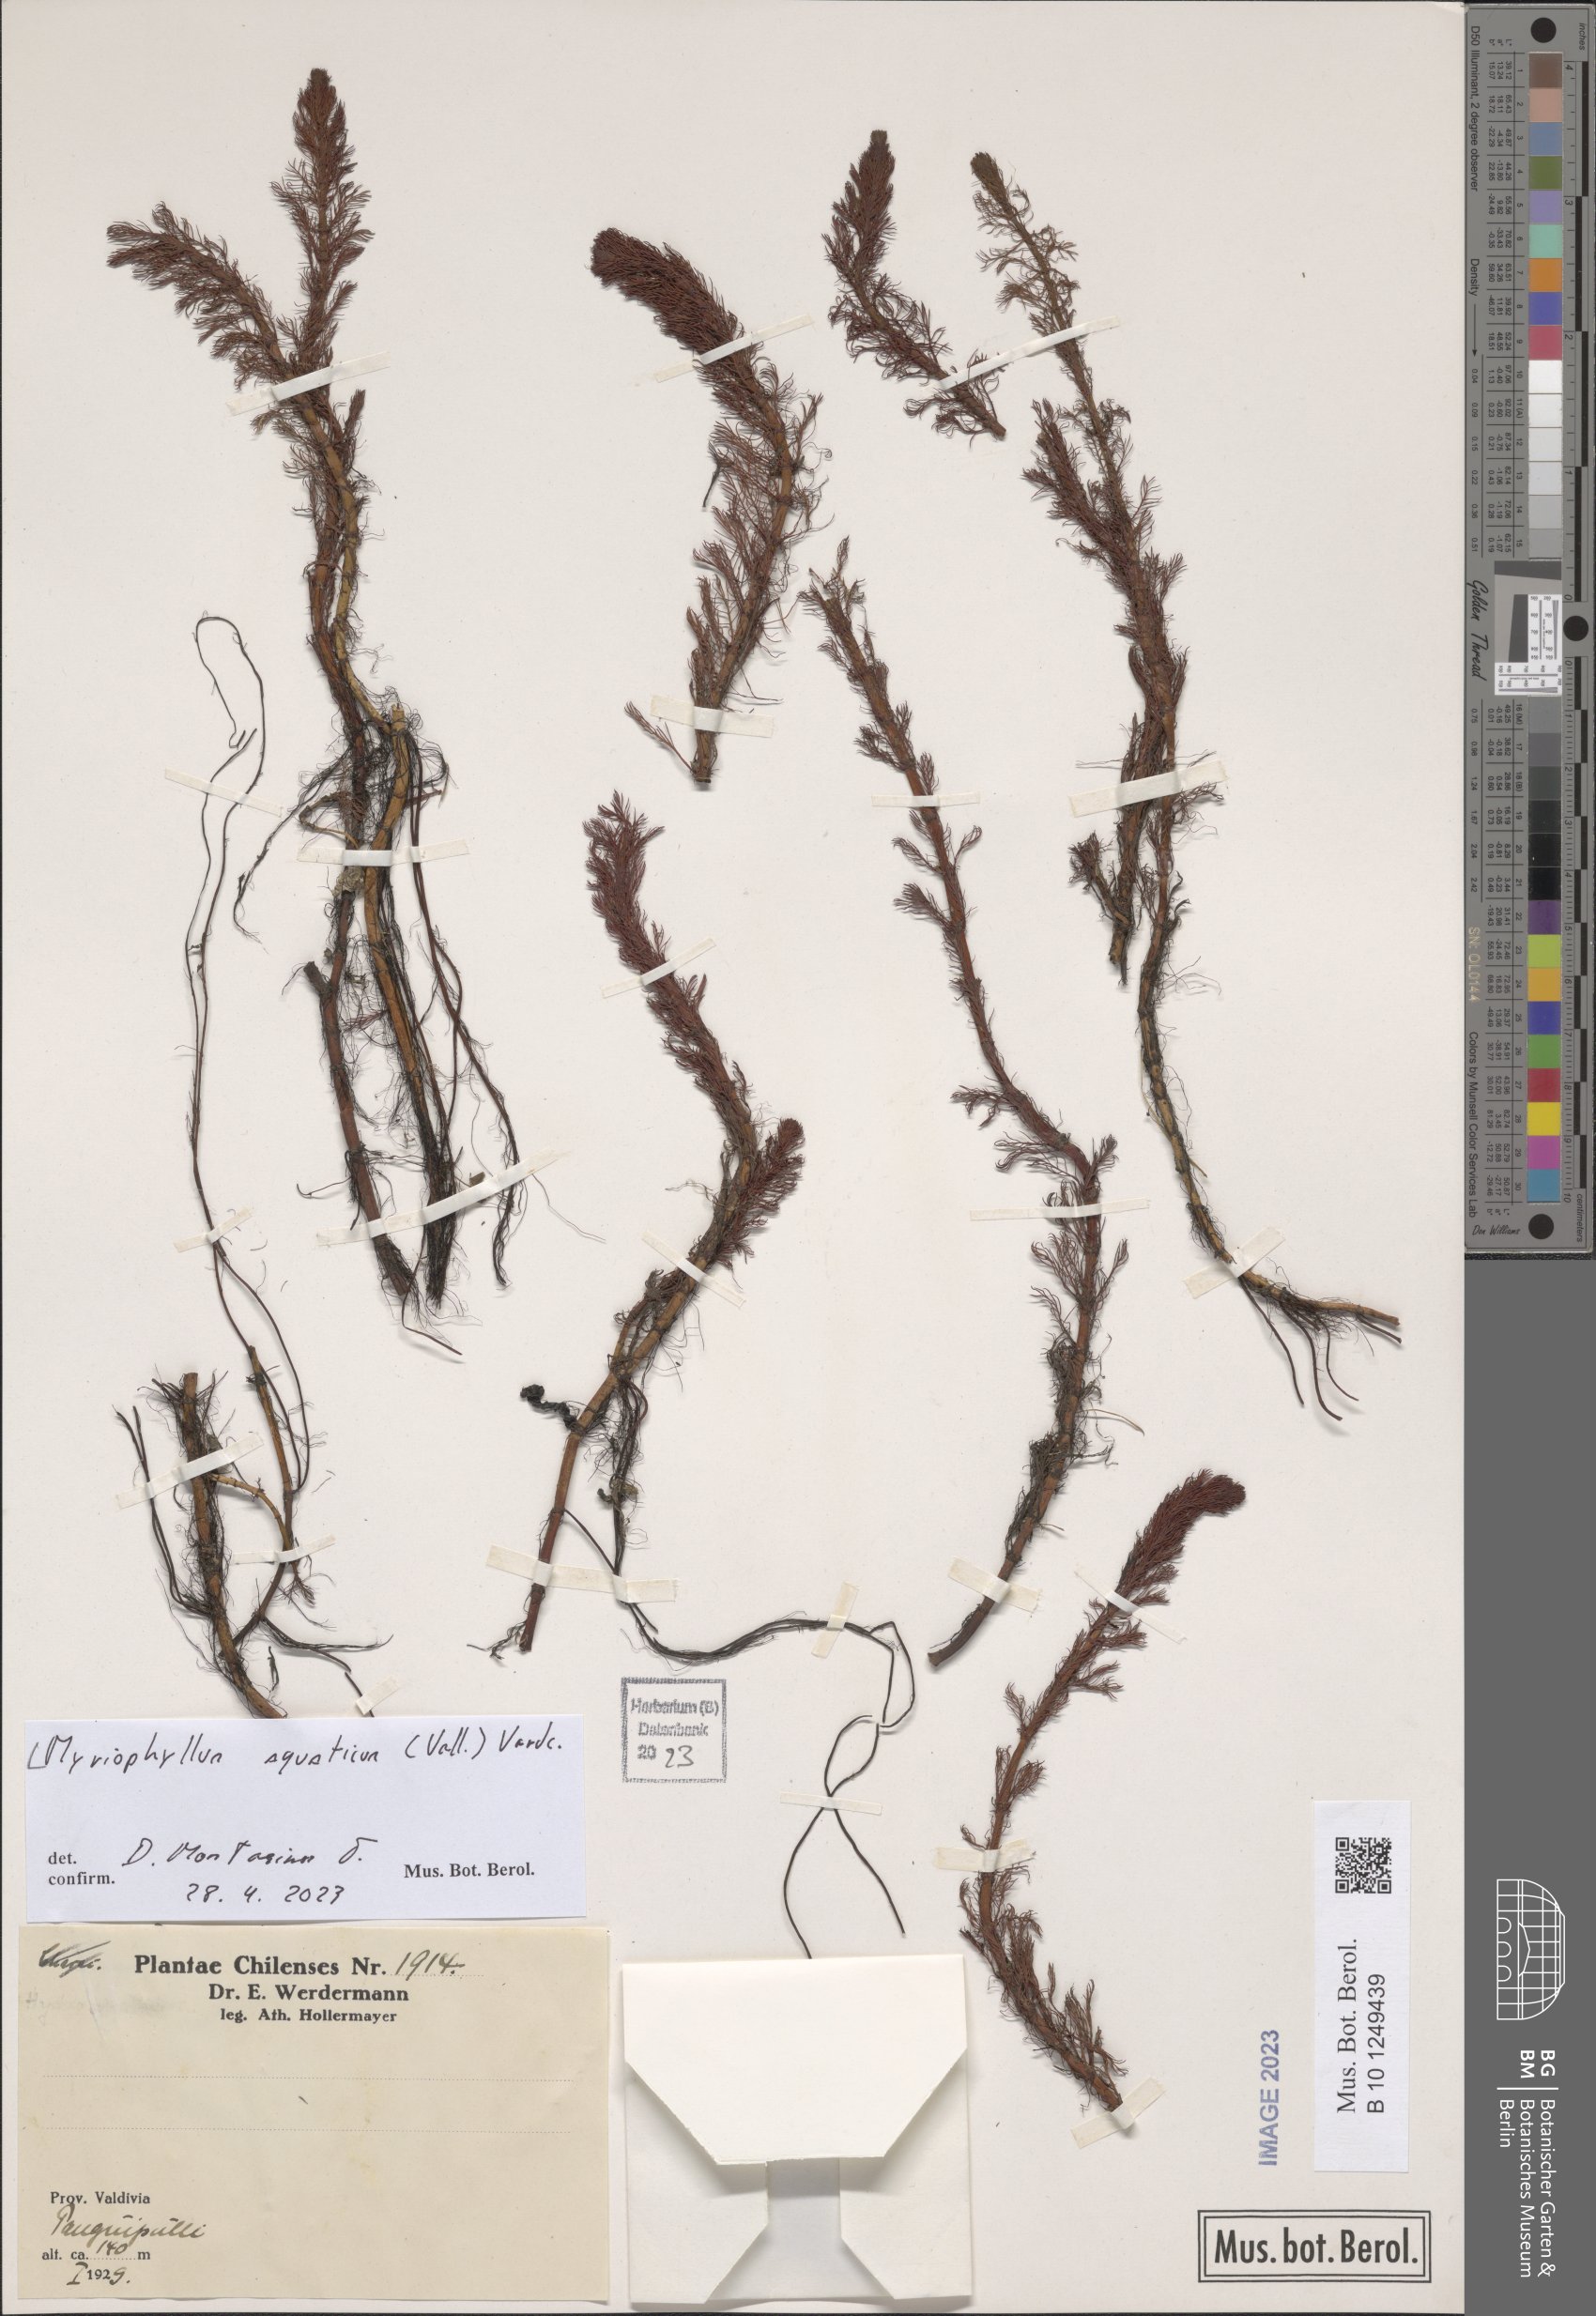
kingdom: Plantae
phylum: Tracheophyta
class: Magnoliopsida
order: Saxifragales
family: Haloragaceae
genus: Myriophyllum
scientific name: Myriophyllum spicatum
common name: Spiked water-milfoil
